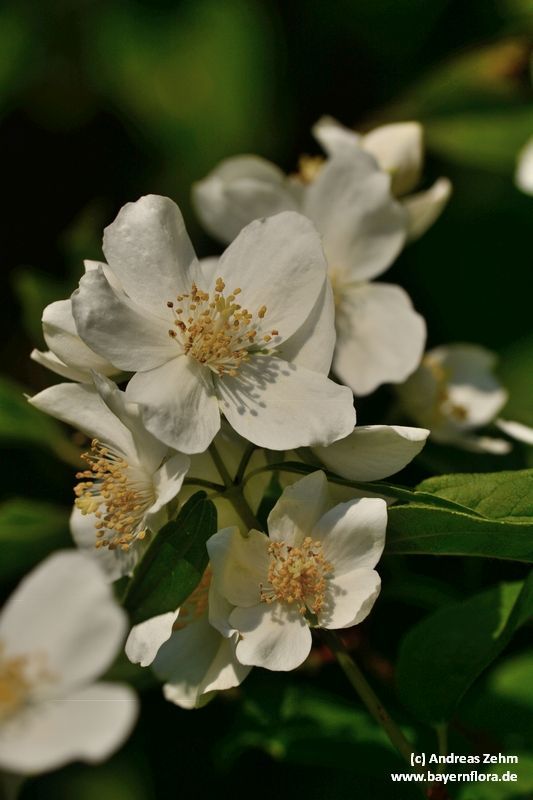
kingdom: Plantae
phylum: Tracheophyta
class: Magnoliopsida
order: Cornales
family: Hydrangeaceae
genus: Philadelphus
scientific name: Philadelphus coronarius
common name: Mock orange
